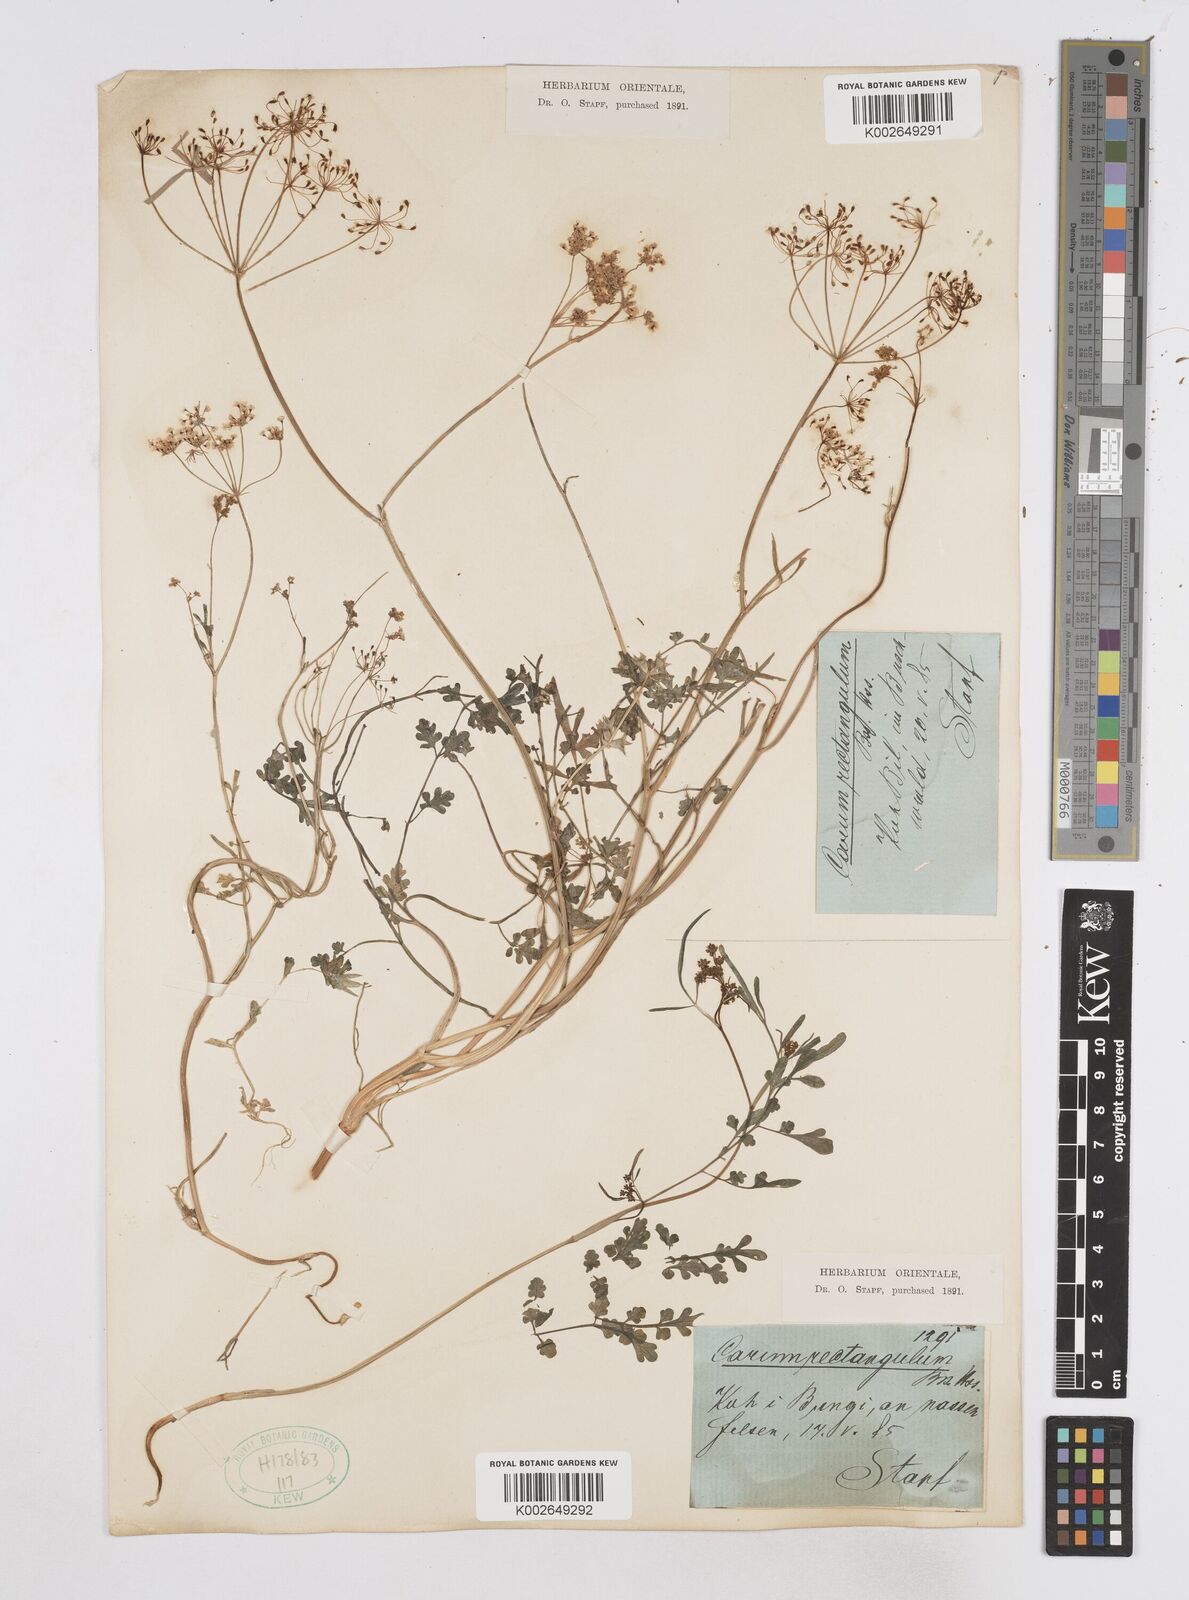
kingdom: Plantae
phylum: Tracheophyta
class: Magnoliopsida
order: Apiales
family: Apiaceae
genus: Bunium
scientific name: Bunium rectangulum
